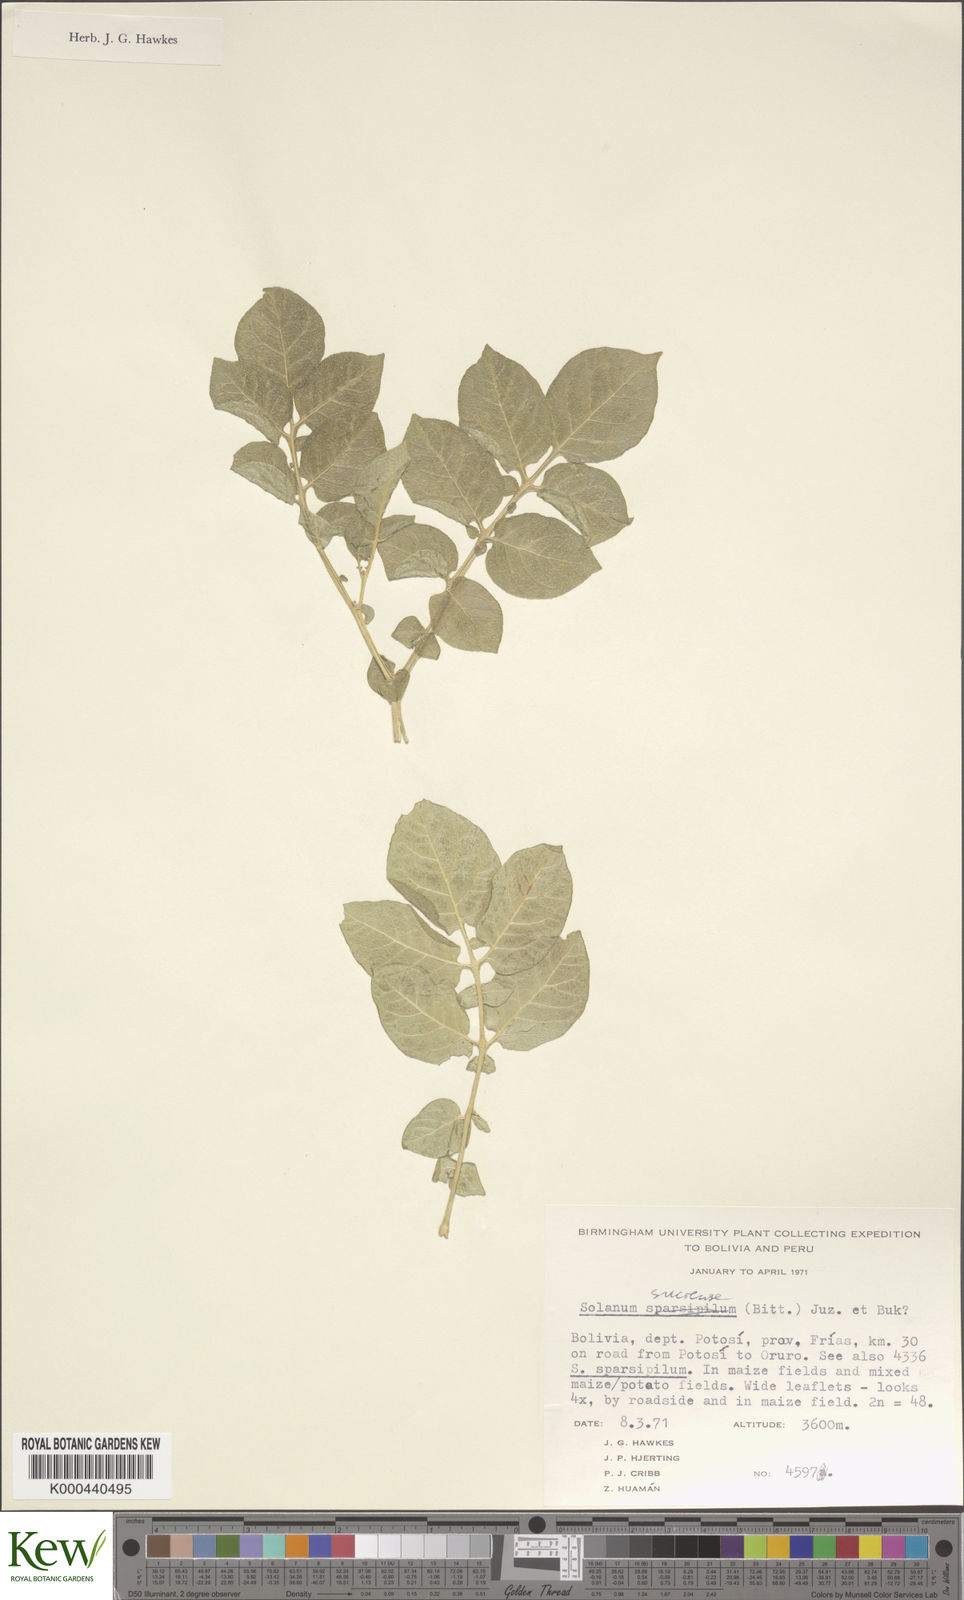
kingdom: Plantae
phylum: Tracheophyta
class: Magnoliopsida
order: Solanales
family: Solanaceae
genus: Solanum
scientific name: Solanum brevicaule
